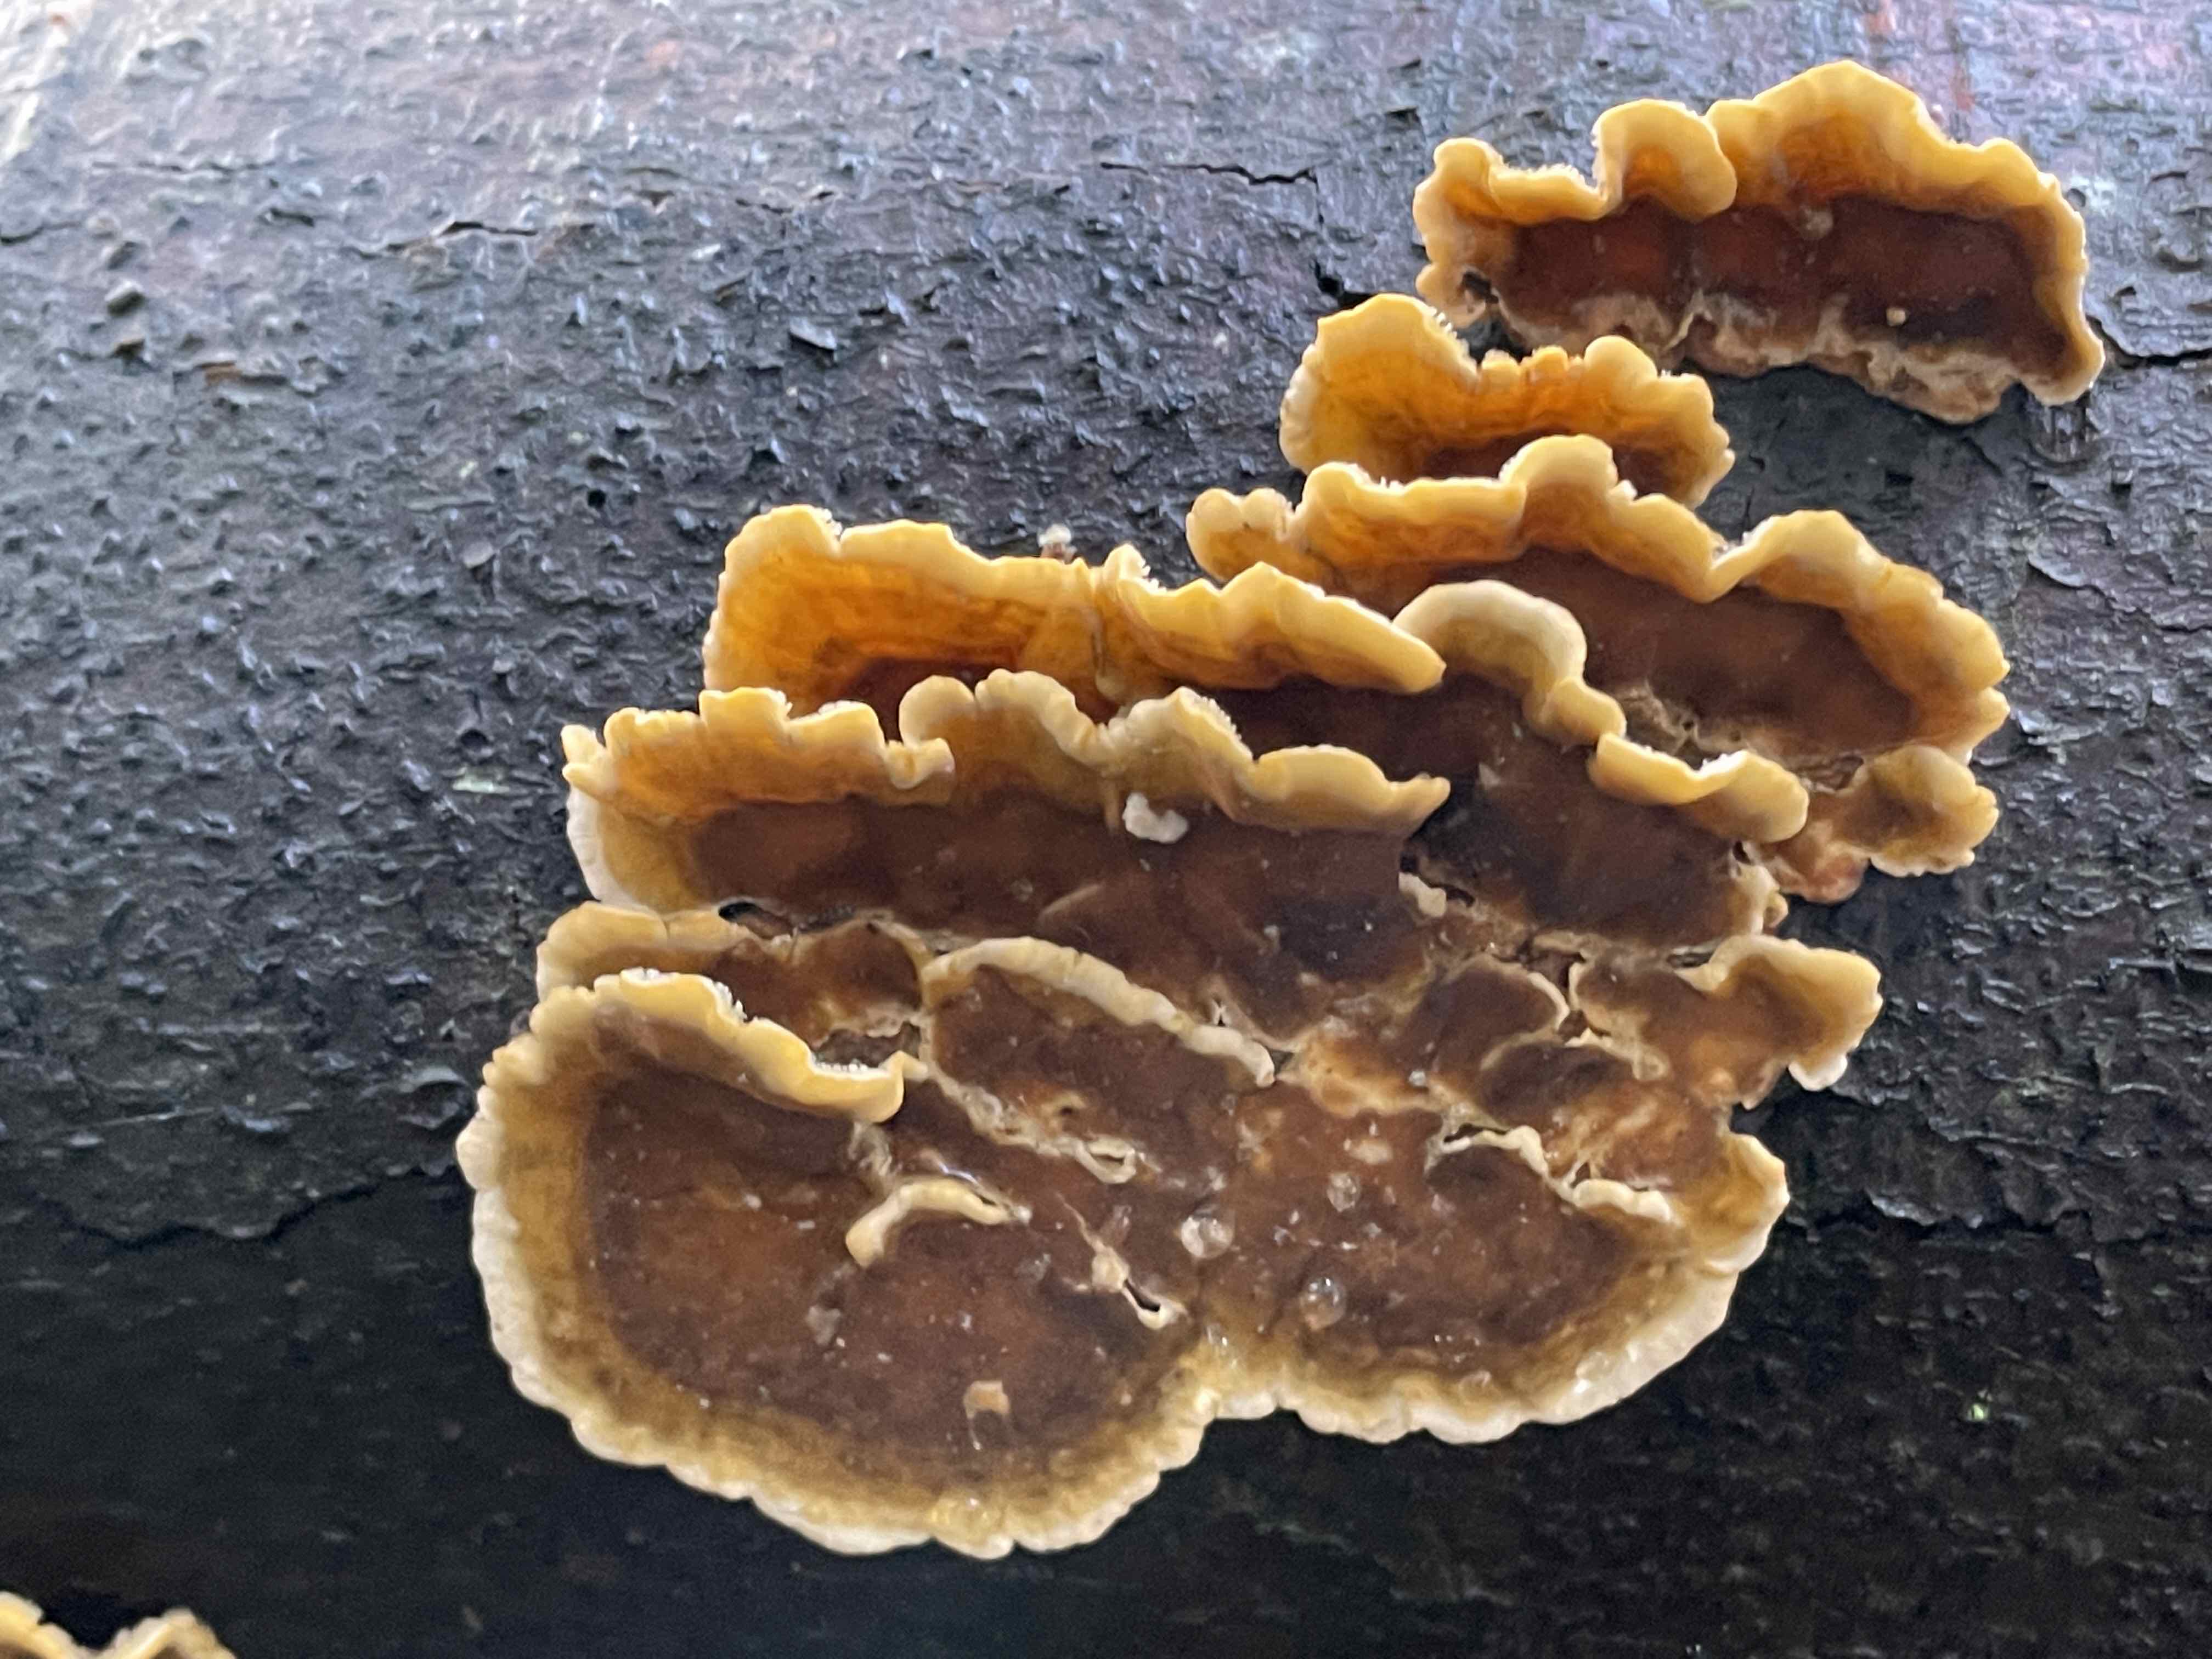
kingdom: Fungi
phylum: Basidiomycota
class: Agaricomycetes
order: Russulales
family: Stereaceae
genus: Stereum
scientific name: Stereum hirsutum
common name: håret lædersvamp
